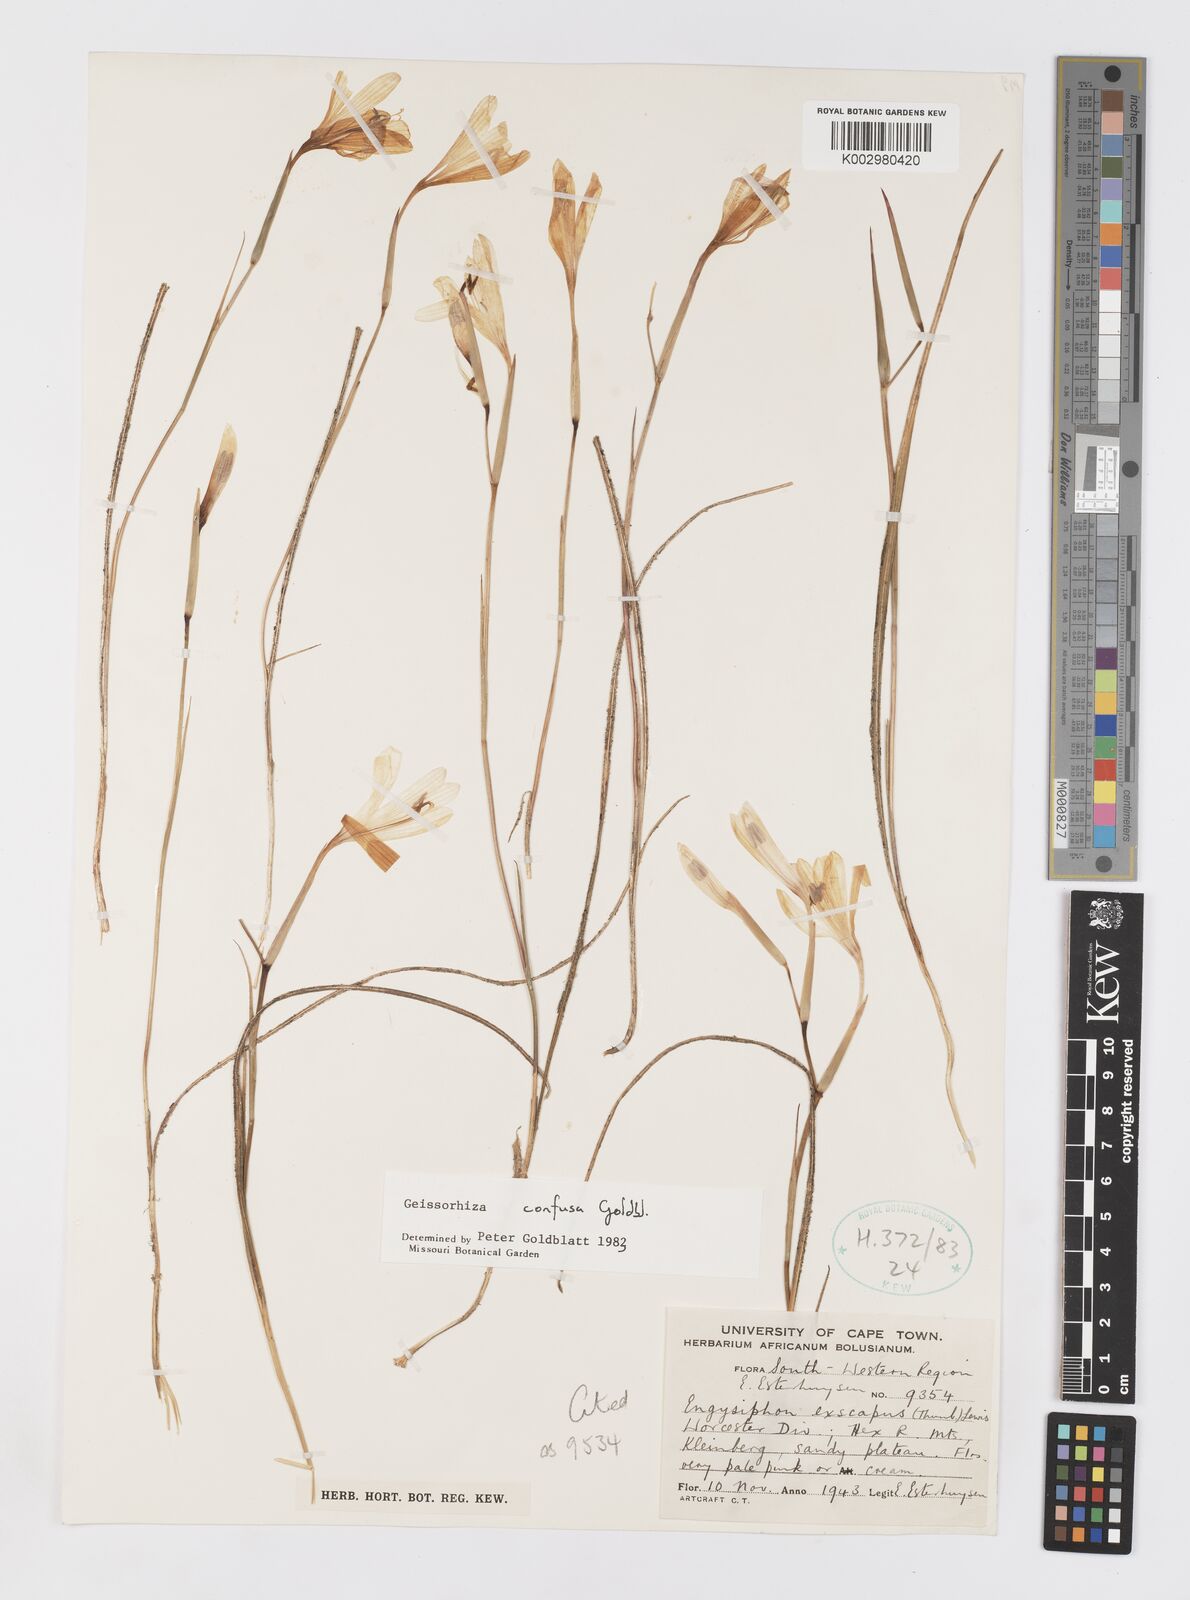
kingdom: Plantae
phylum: Tracheophyta
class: Liliopsida
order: Asparagales
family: Iridaceae
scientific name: Iridaceae
